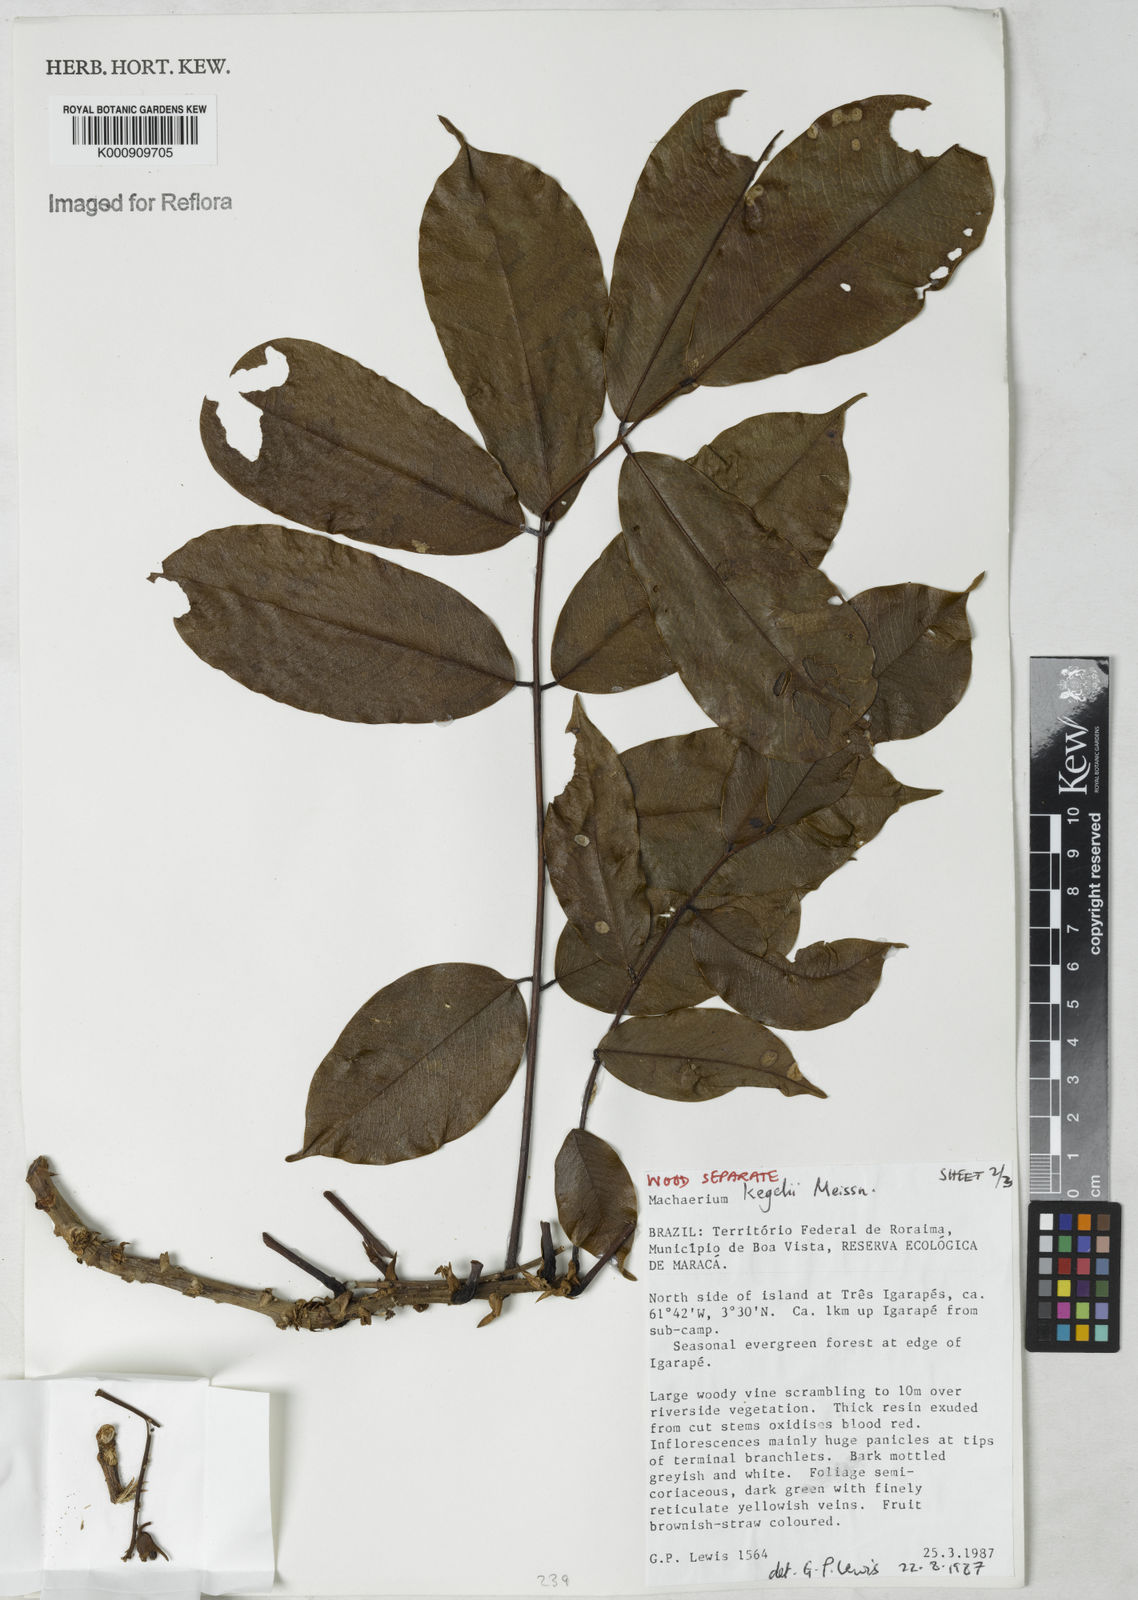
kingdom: Plantae
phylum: Tracheophyta
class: Magnoliopsida
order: Fabales
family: Fabaceae
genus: Machaerium
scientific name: Machaerium kegelii
